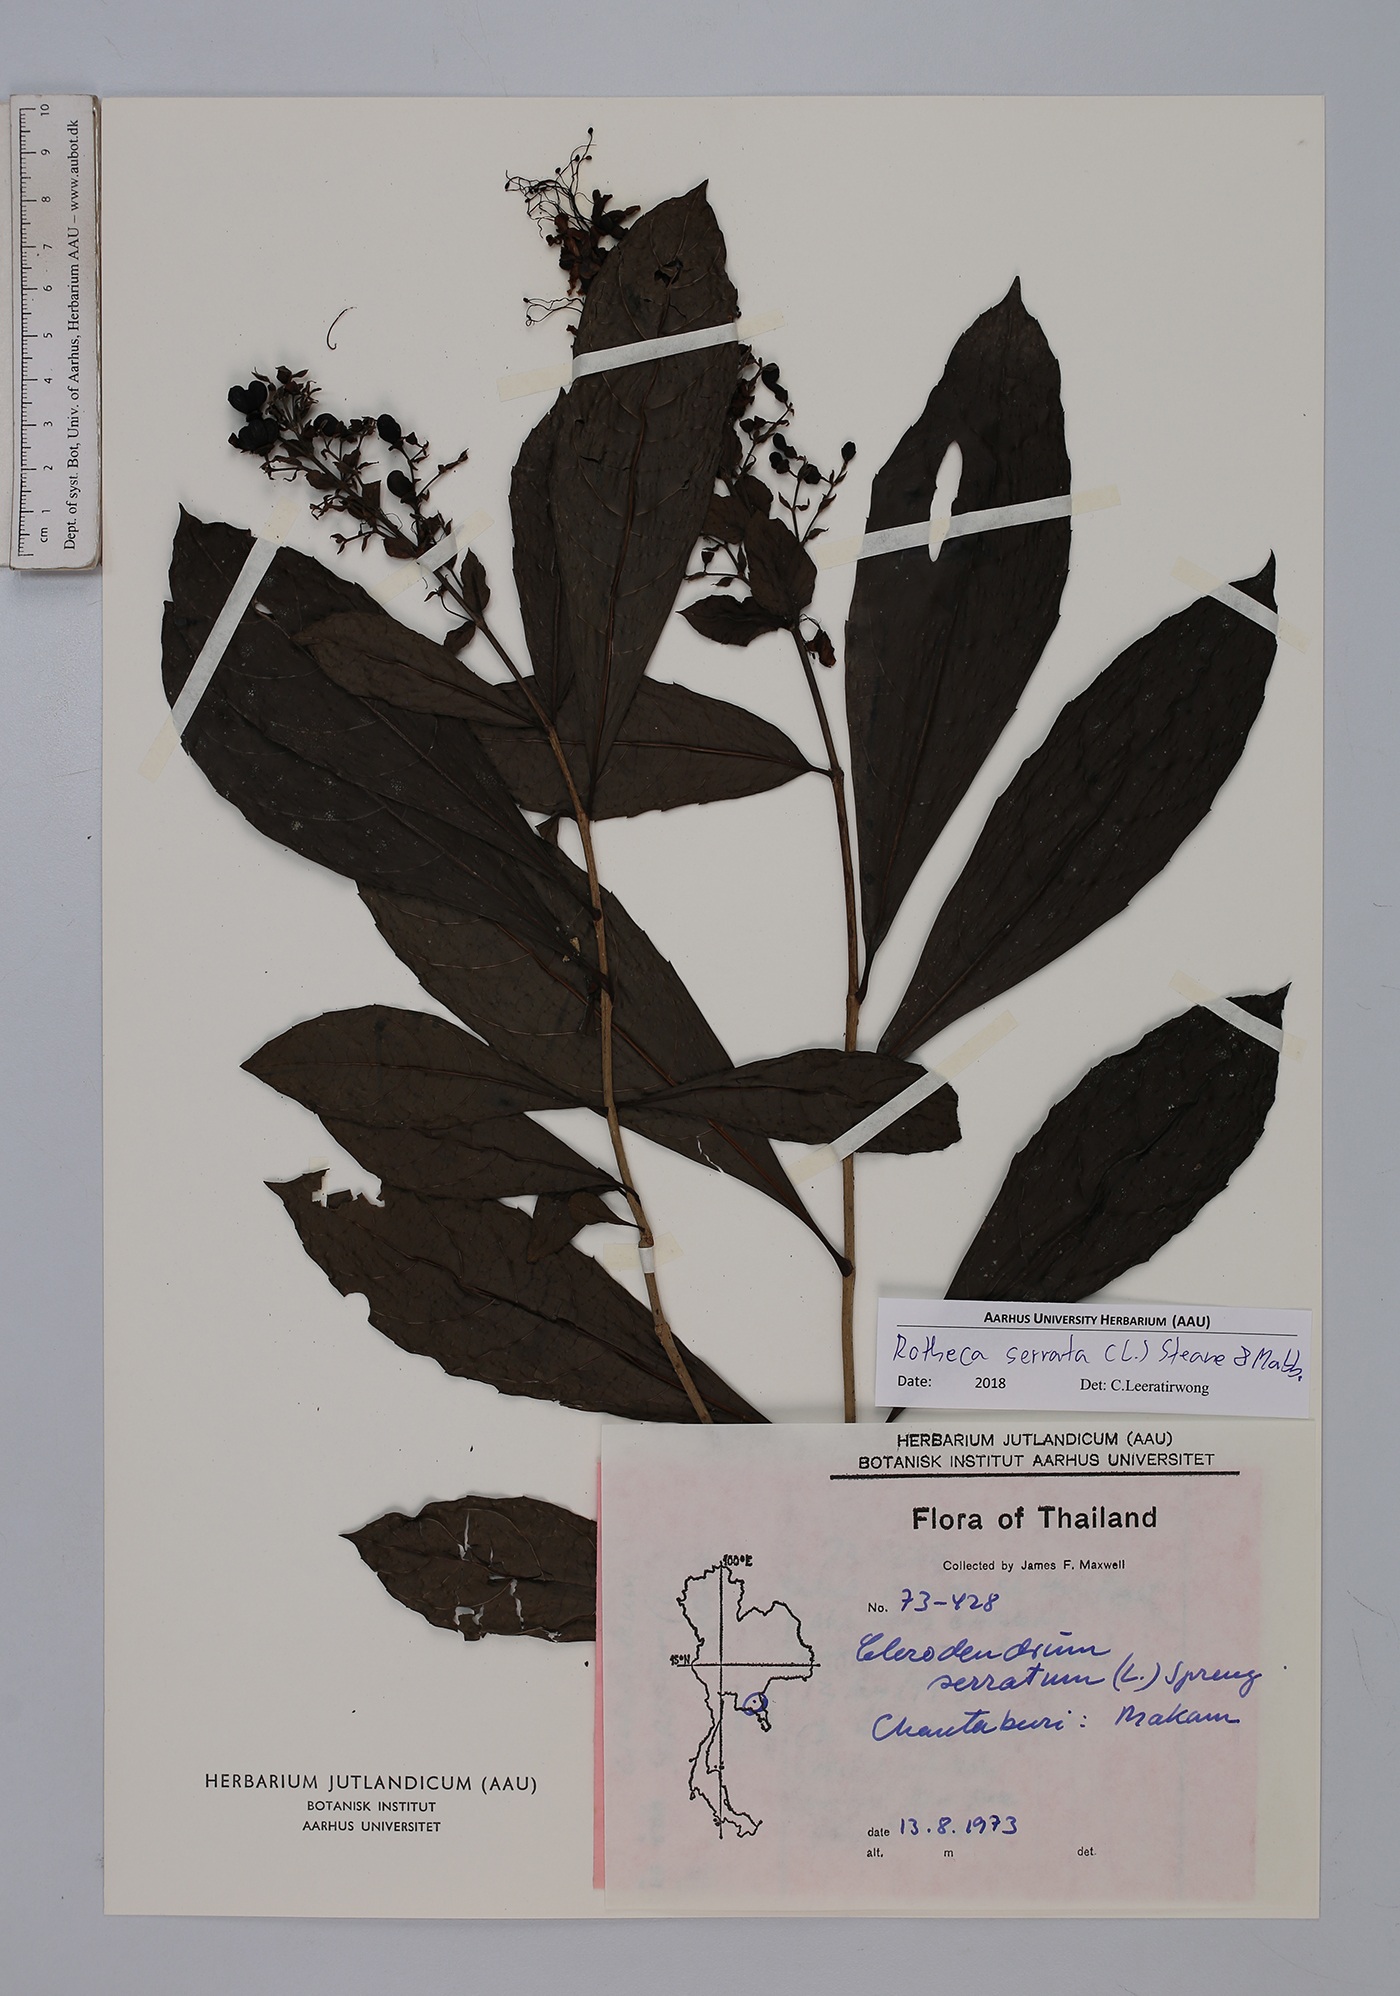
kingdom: Plantae
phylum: Tracheophyta
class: Magnoliopsida
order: Lamiales
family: Lamiaceae
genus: Rotheca
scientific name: Rotheca serrata
